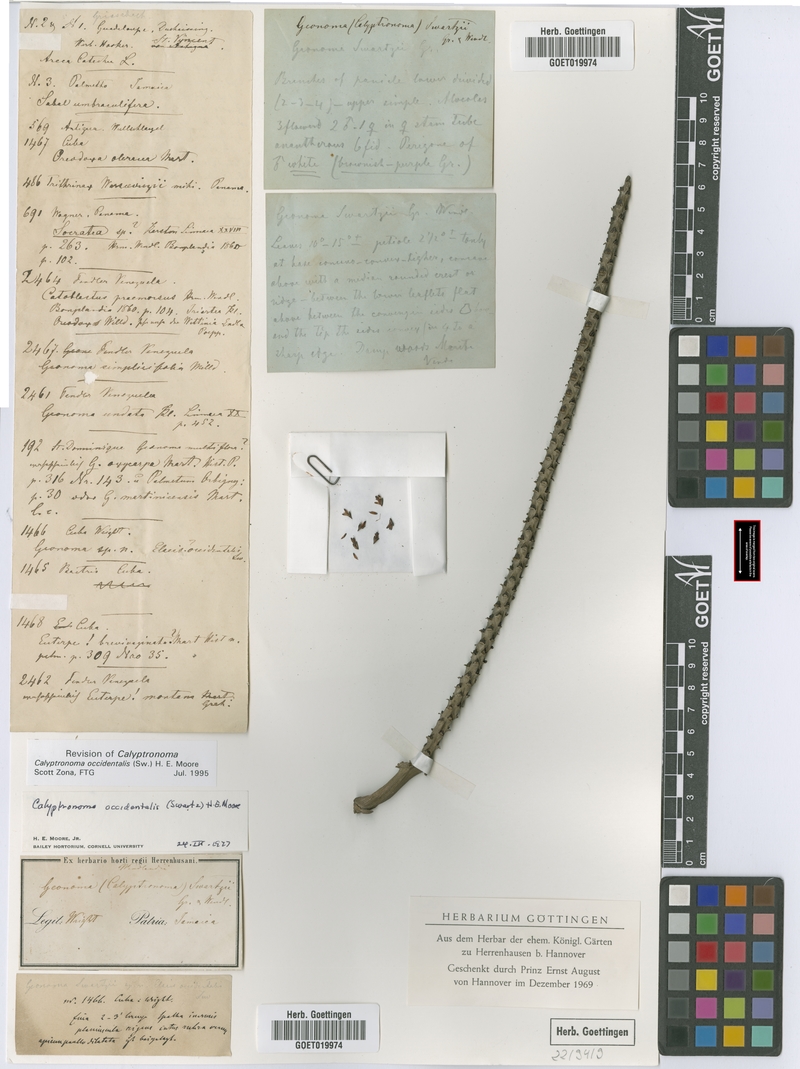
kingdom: Plantae
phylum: Tracheophyta
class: Liliopsida
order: Arecales
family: Arecaceae
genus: Calyptronoma
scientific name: Calyptronoma occidentalis
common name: Long-thatch palm
